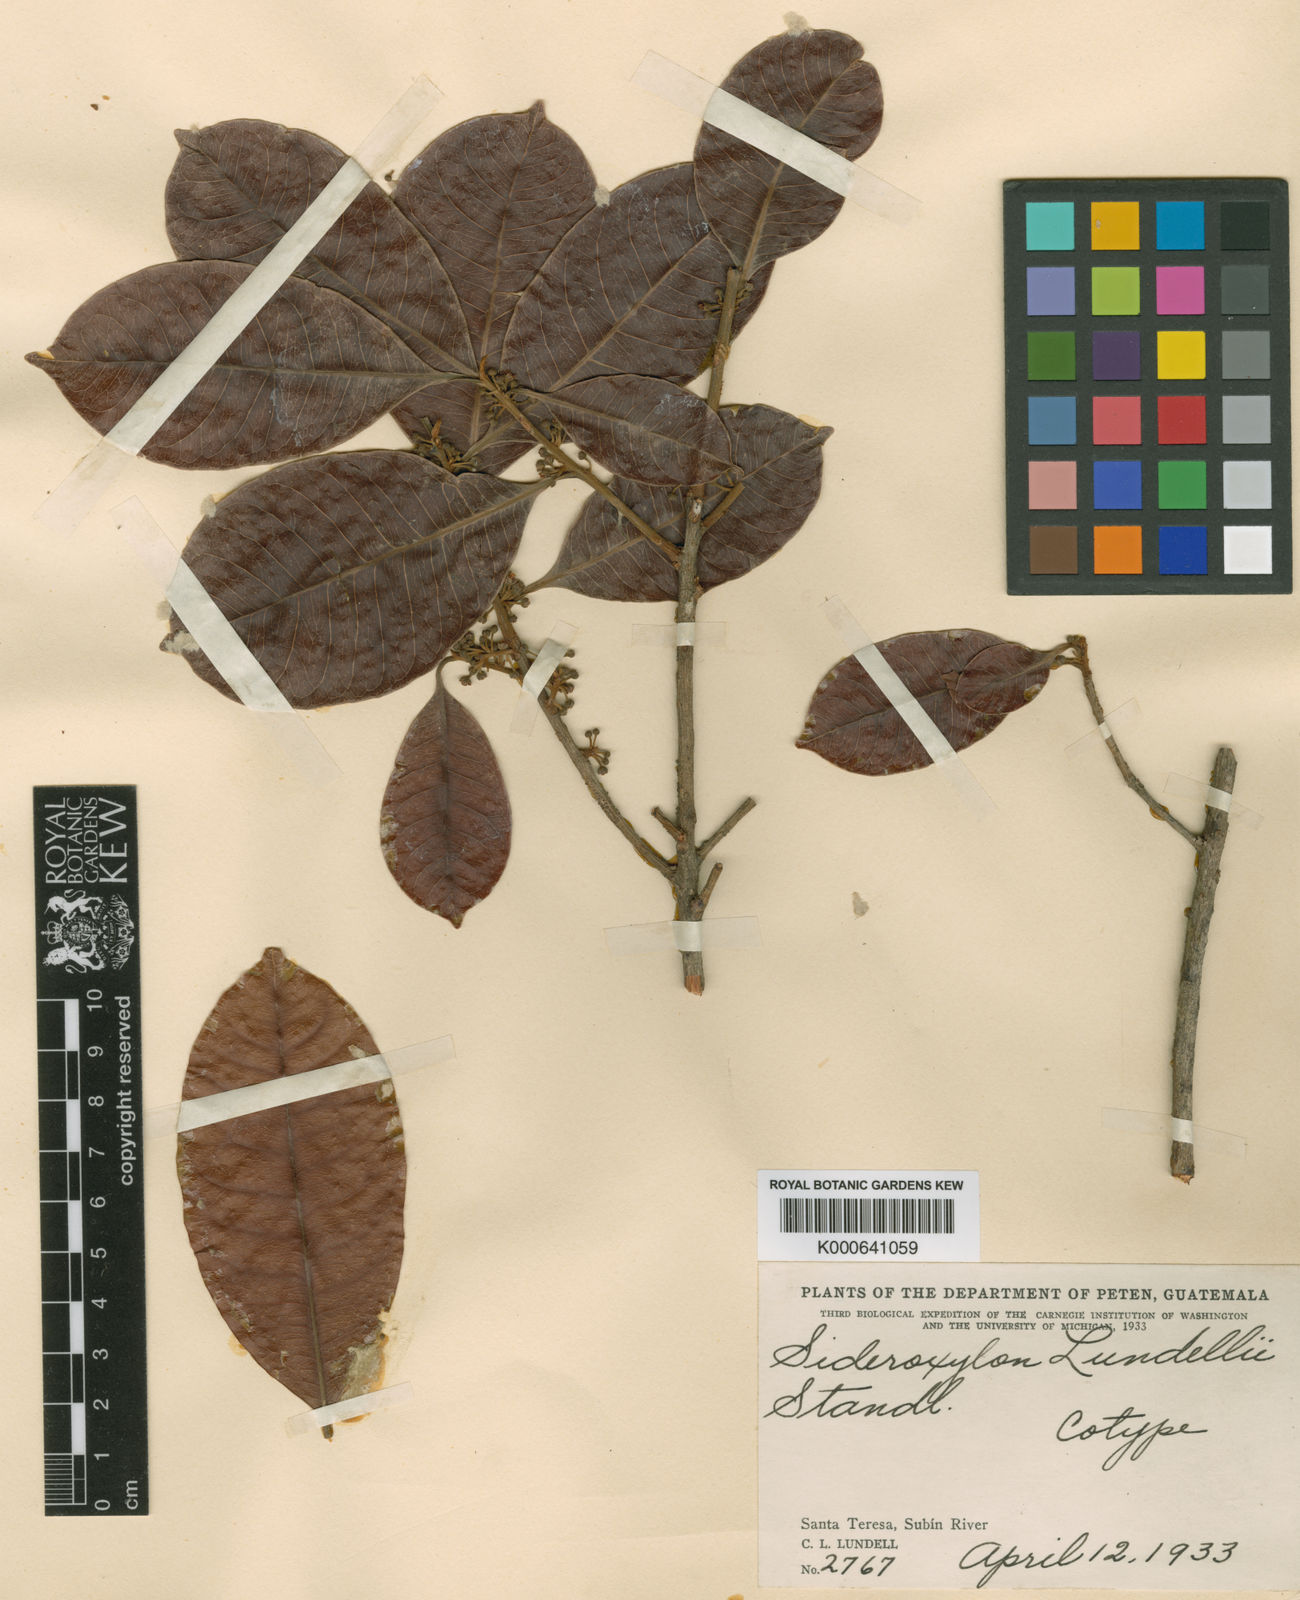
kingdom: Plantae
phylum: Tracheophyta
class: Magnoliopsida
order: Ericales
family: Sapotaceae
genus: Pouteria
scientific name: Pouteria belizensis
